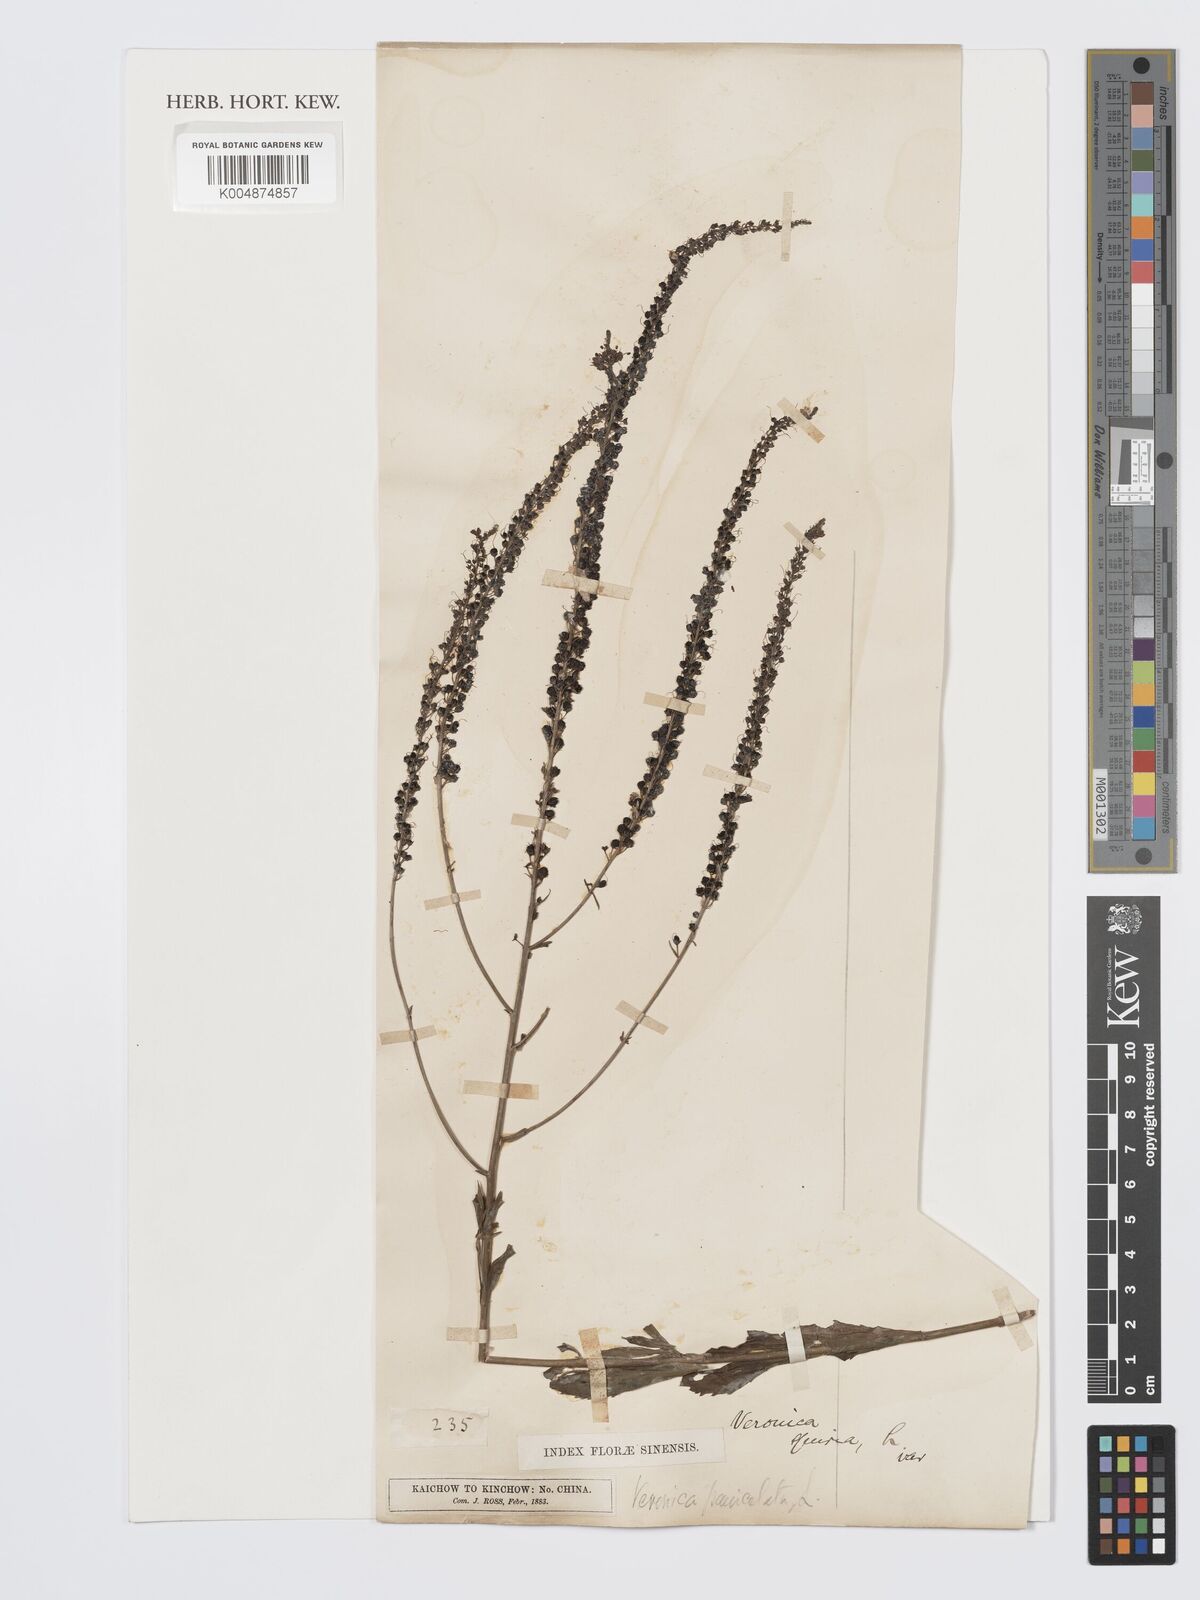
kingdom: Plantae
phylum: Tracheophyta
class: Magnoliopsida
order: Lamiales
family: Plantaginaceae
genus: Veronica
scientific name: Veronica spuria
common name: Bastard speedwell
